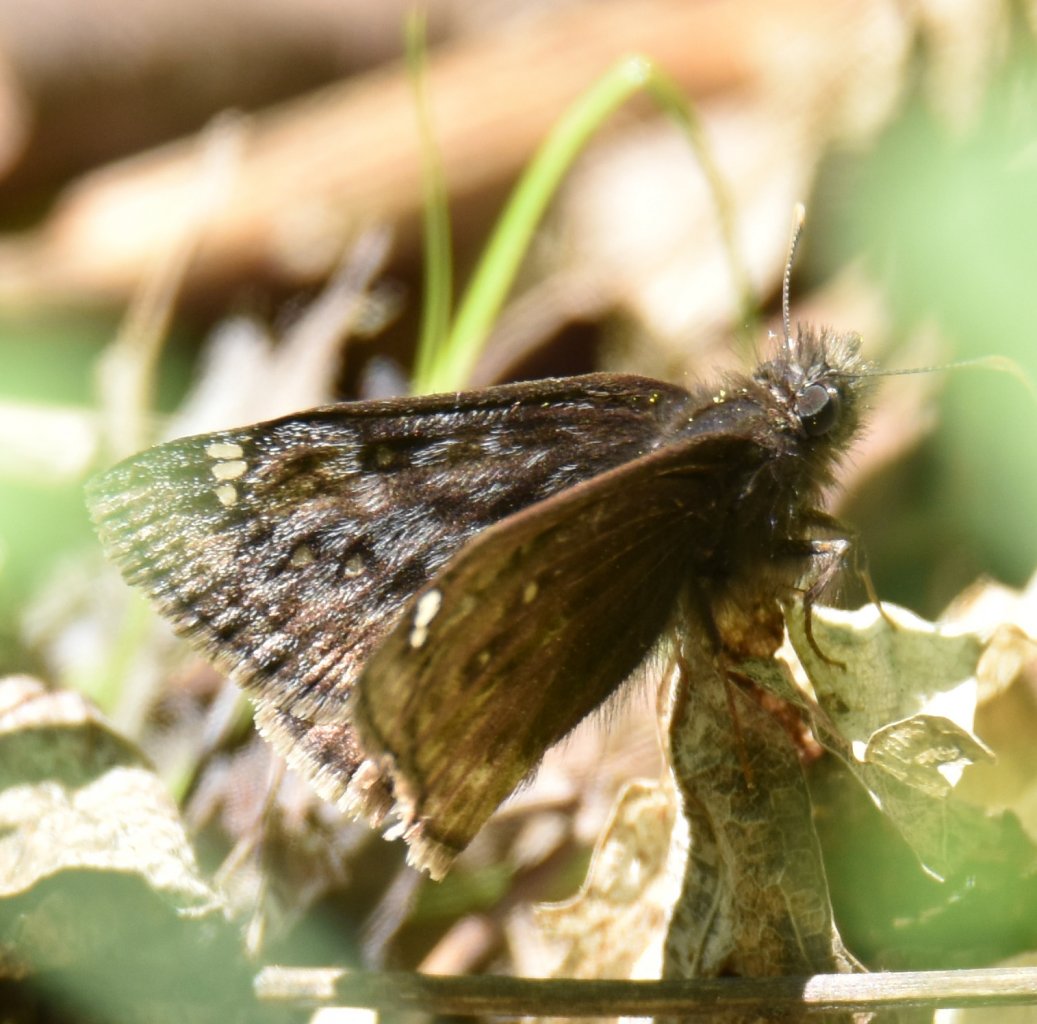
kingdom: Animalia
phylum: Arthropoda
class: Insecta
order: Lepidoptera
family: Hesperiidae
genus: Erynnis
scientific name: Erynnis
